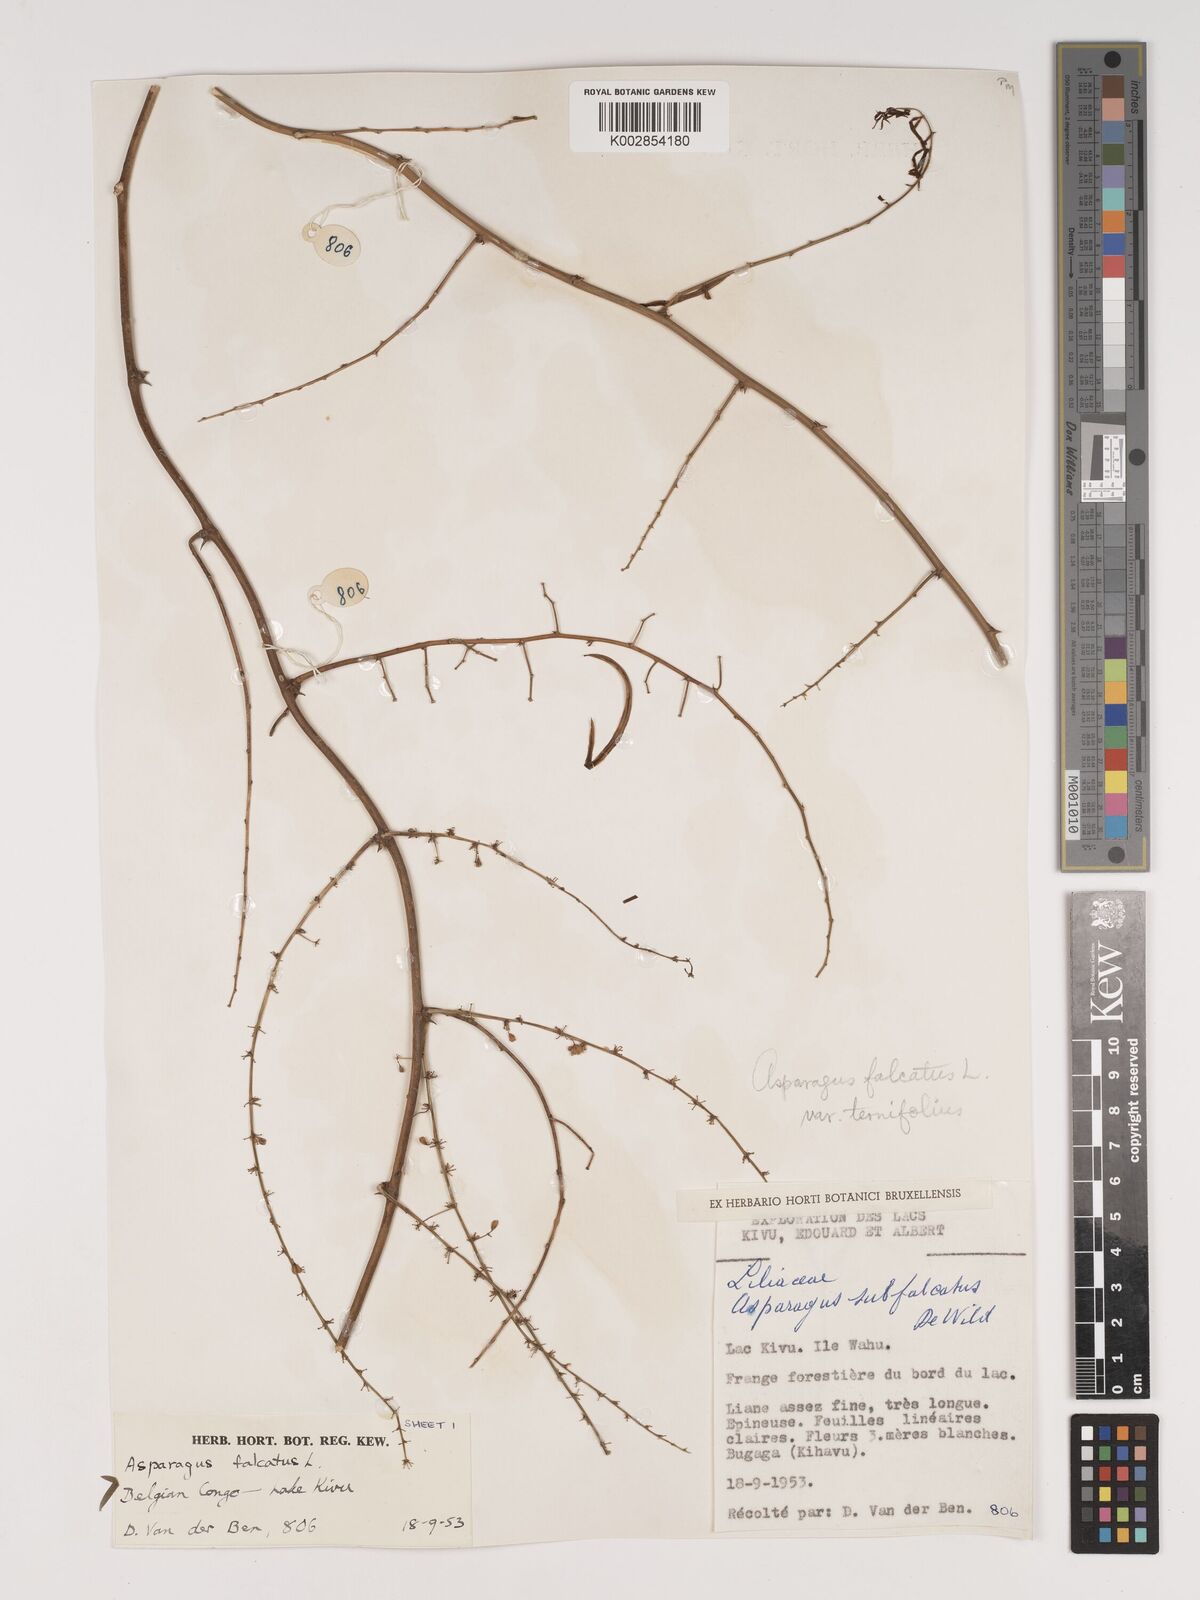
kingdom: Plantae
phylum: Tracheophyta
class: Liliopsida
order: Asparagales
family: Asparagaceae
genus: Asparagus
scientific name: Asparagus falcatus
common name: Asparagus
